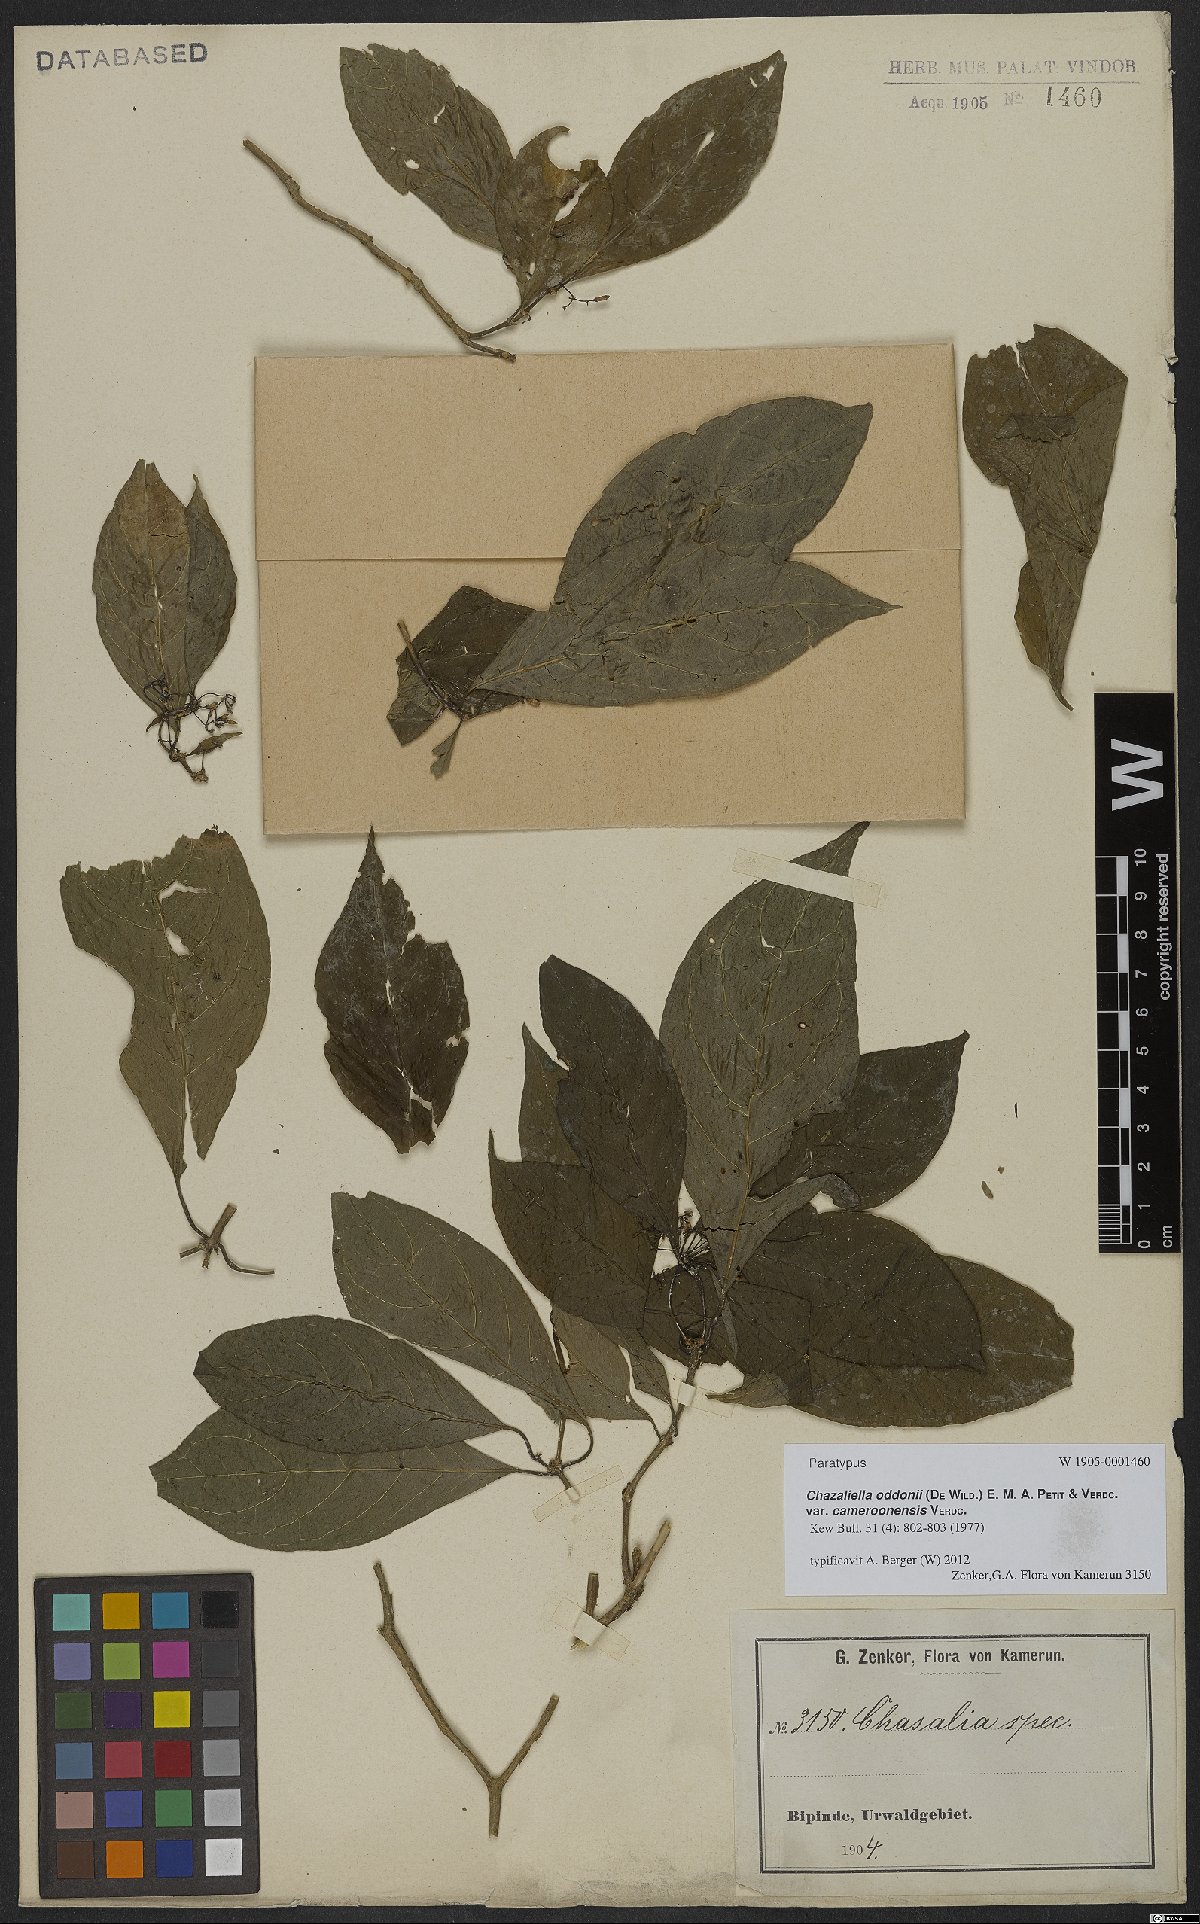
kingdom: Plantae
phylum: Tracheophyta
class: Magnoliopsida
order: Gentianales
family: Rubiaceae
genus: Eumachia
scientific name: Eumachia oddonii
